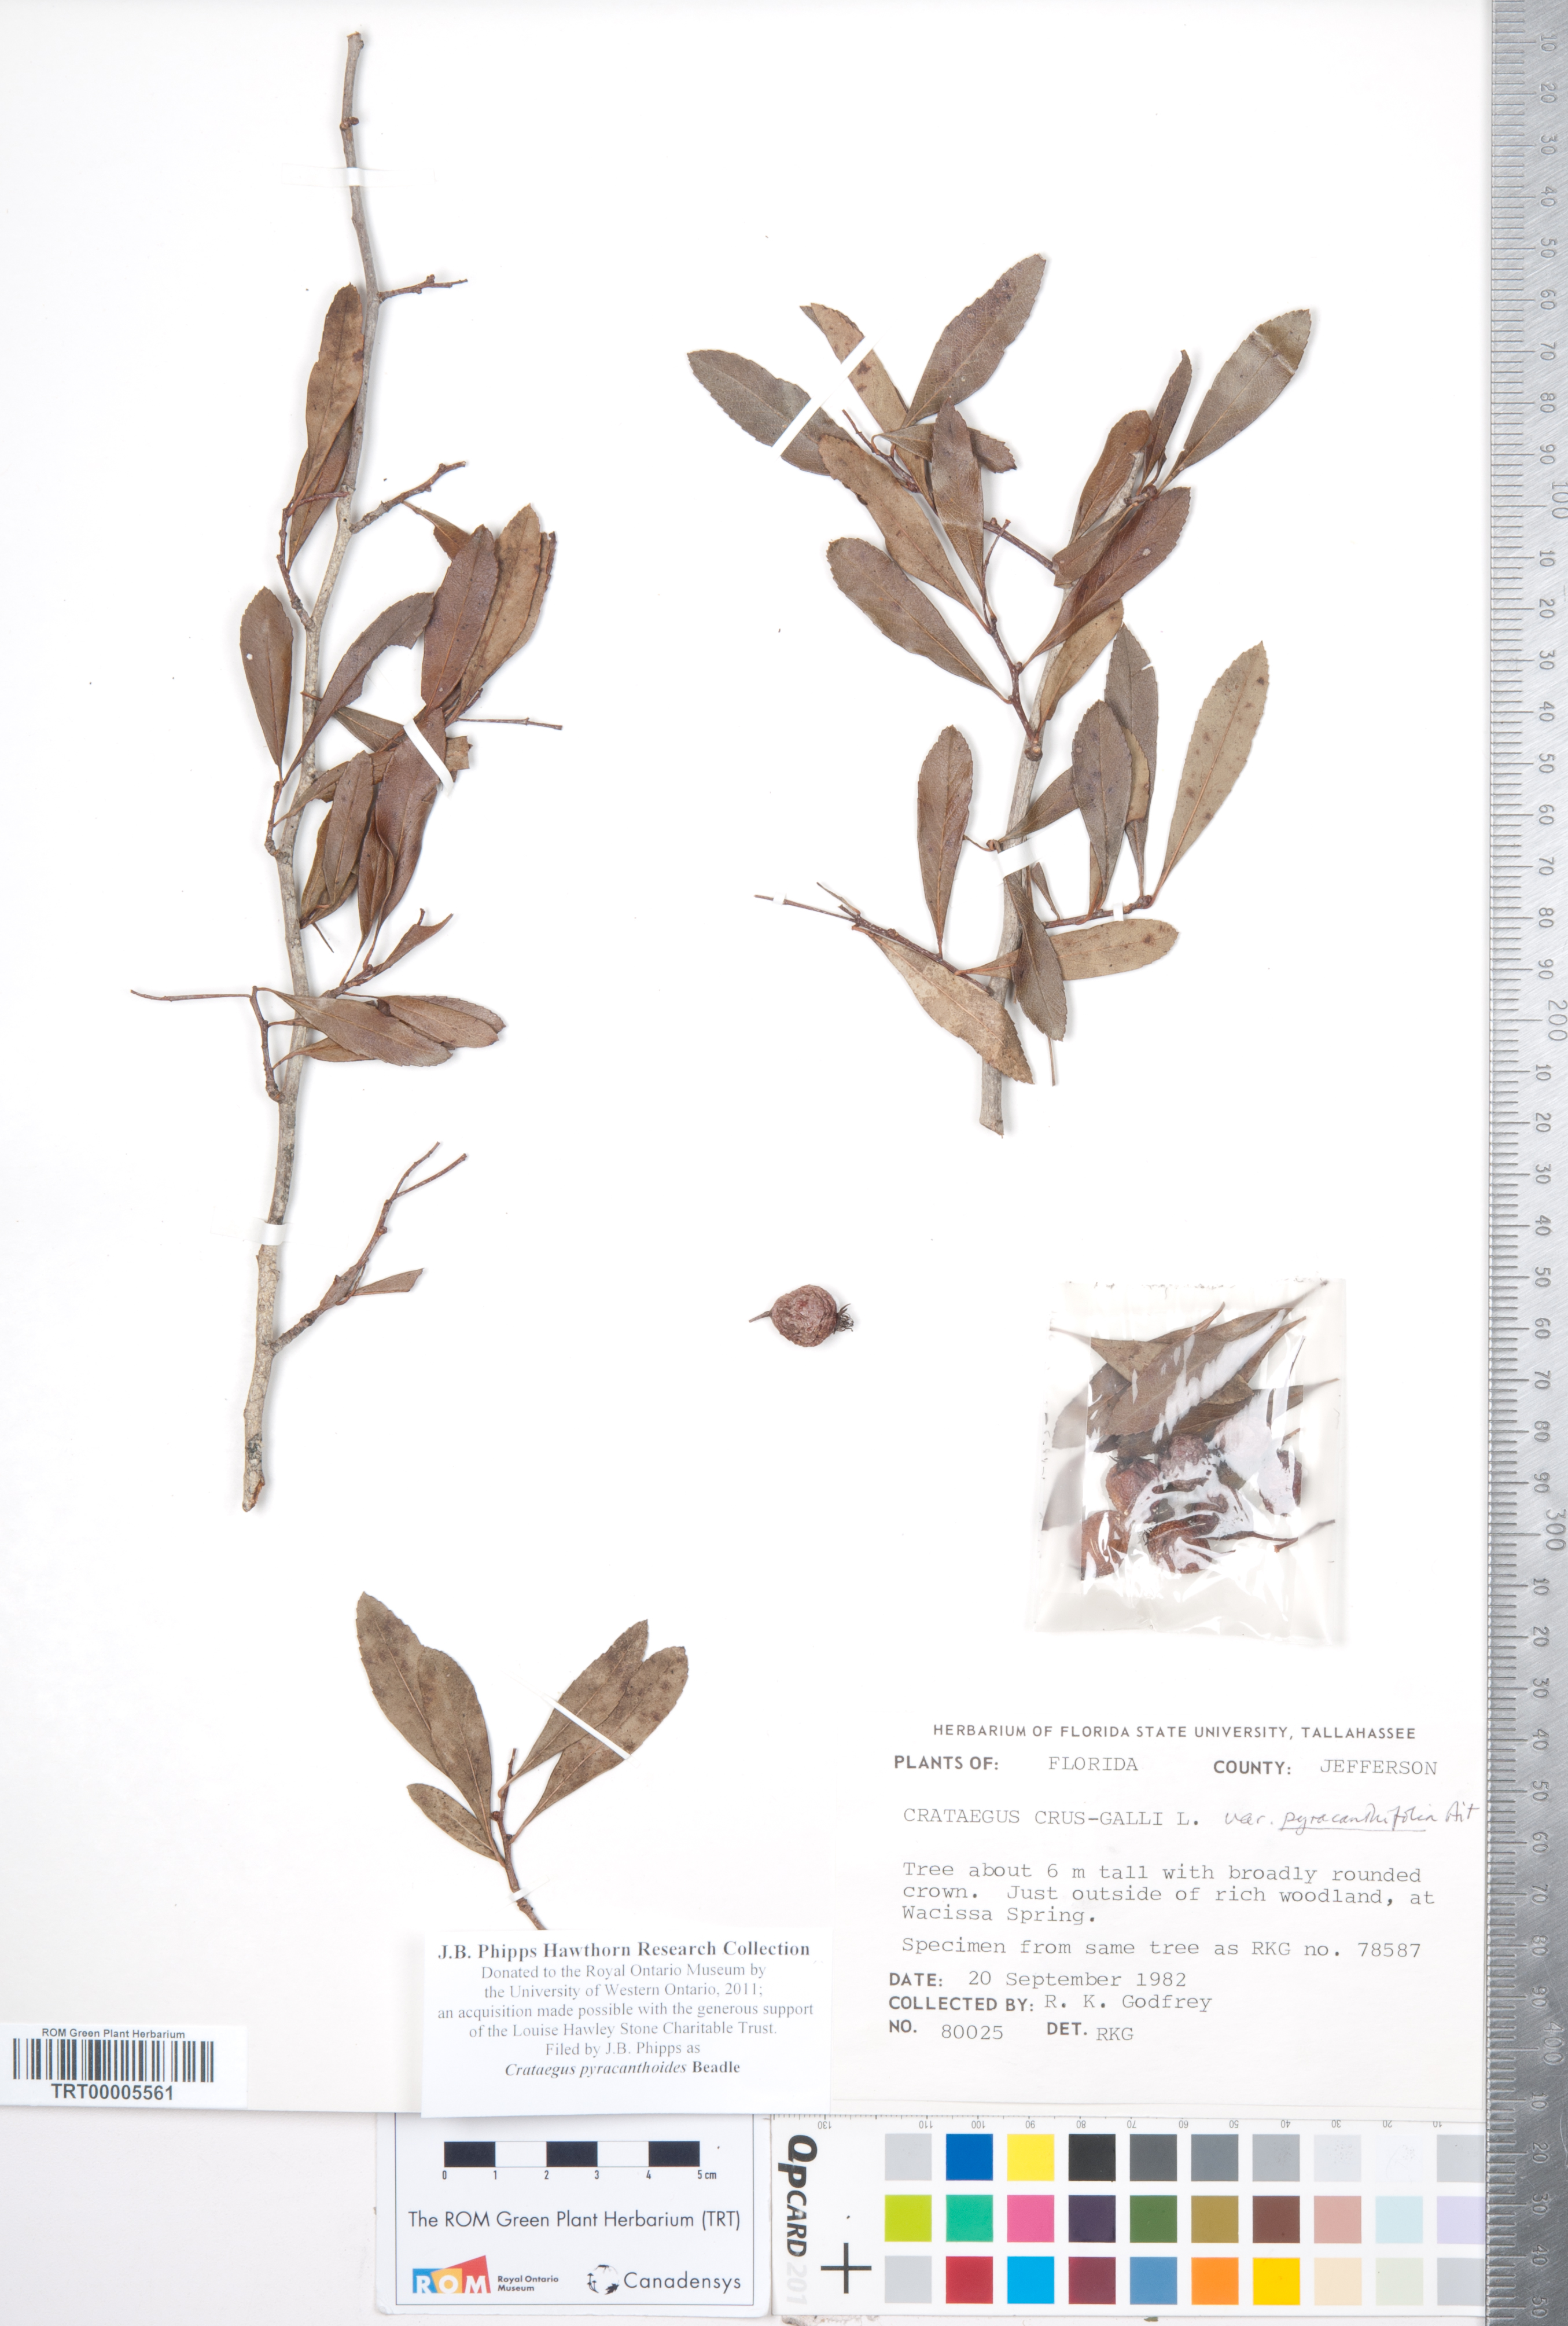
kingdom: Plantae
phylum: Tracheophyta
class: Magnoliopsida
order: Rosales
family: Rosaceae
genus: Crataegus
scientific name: Crataegus crus-galli
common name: Cockspurthorn
